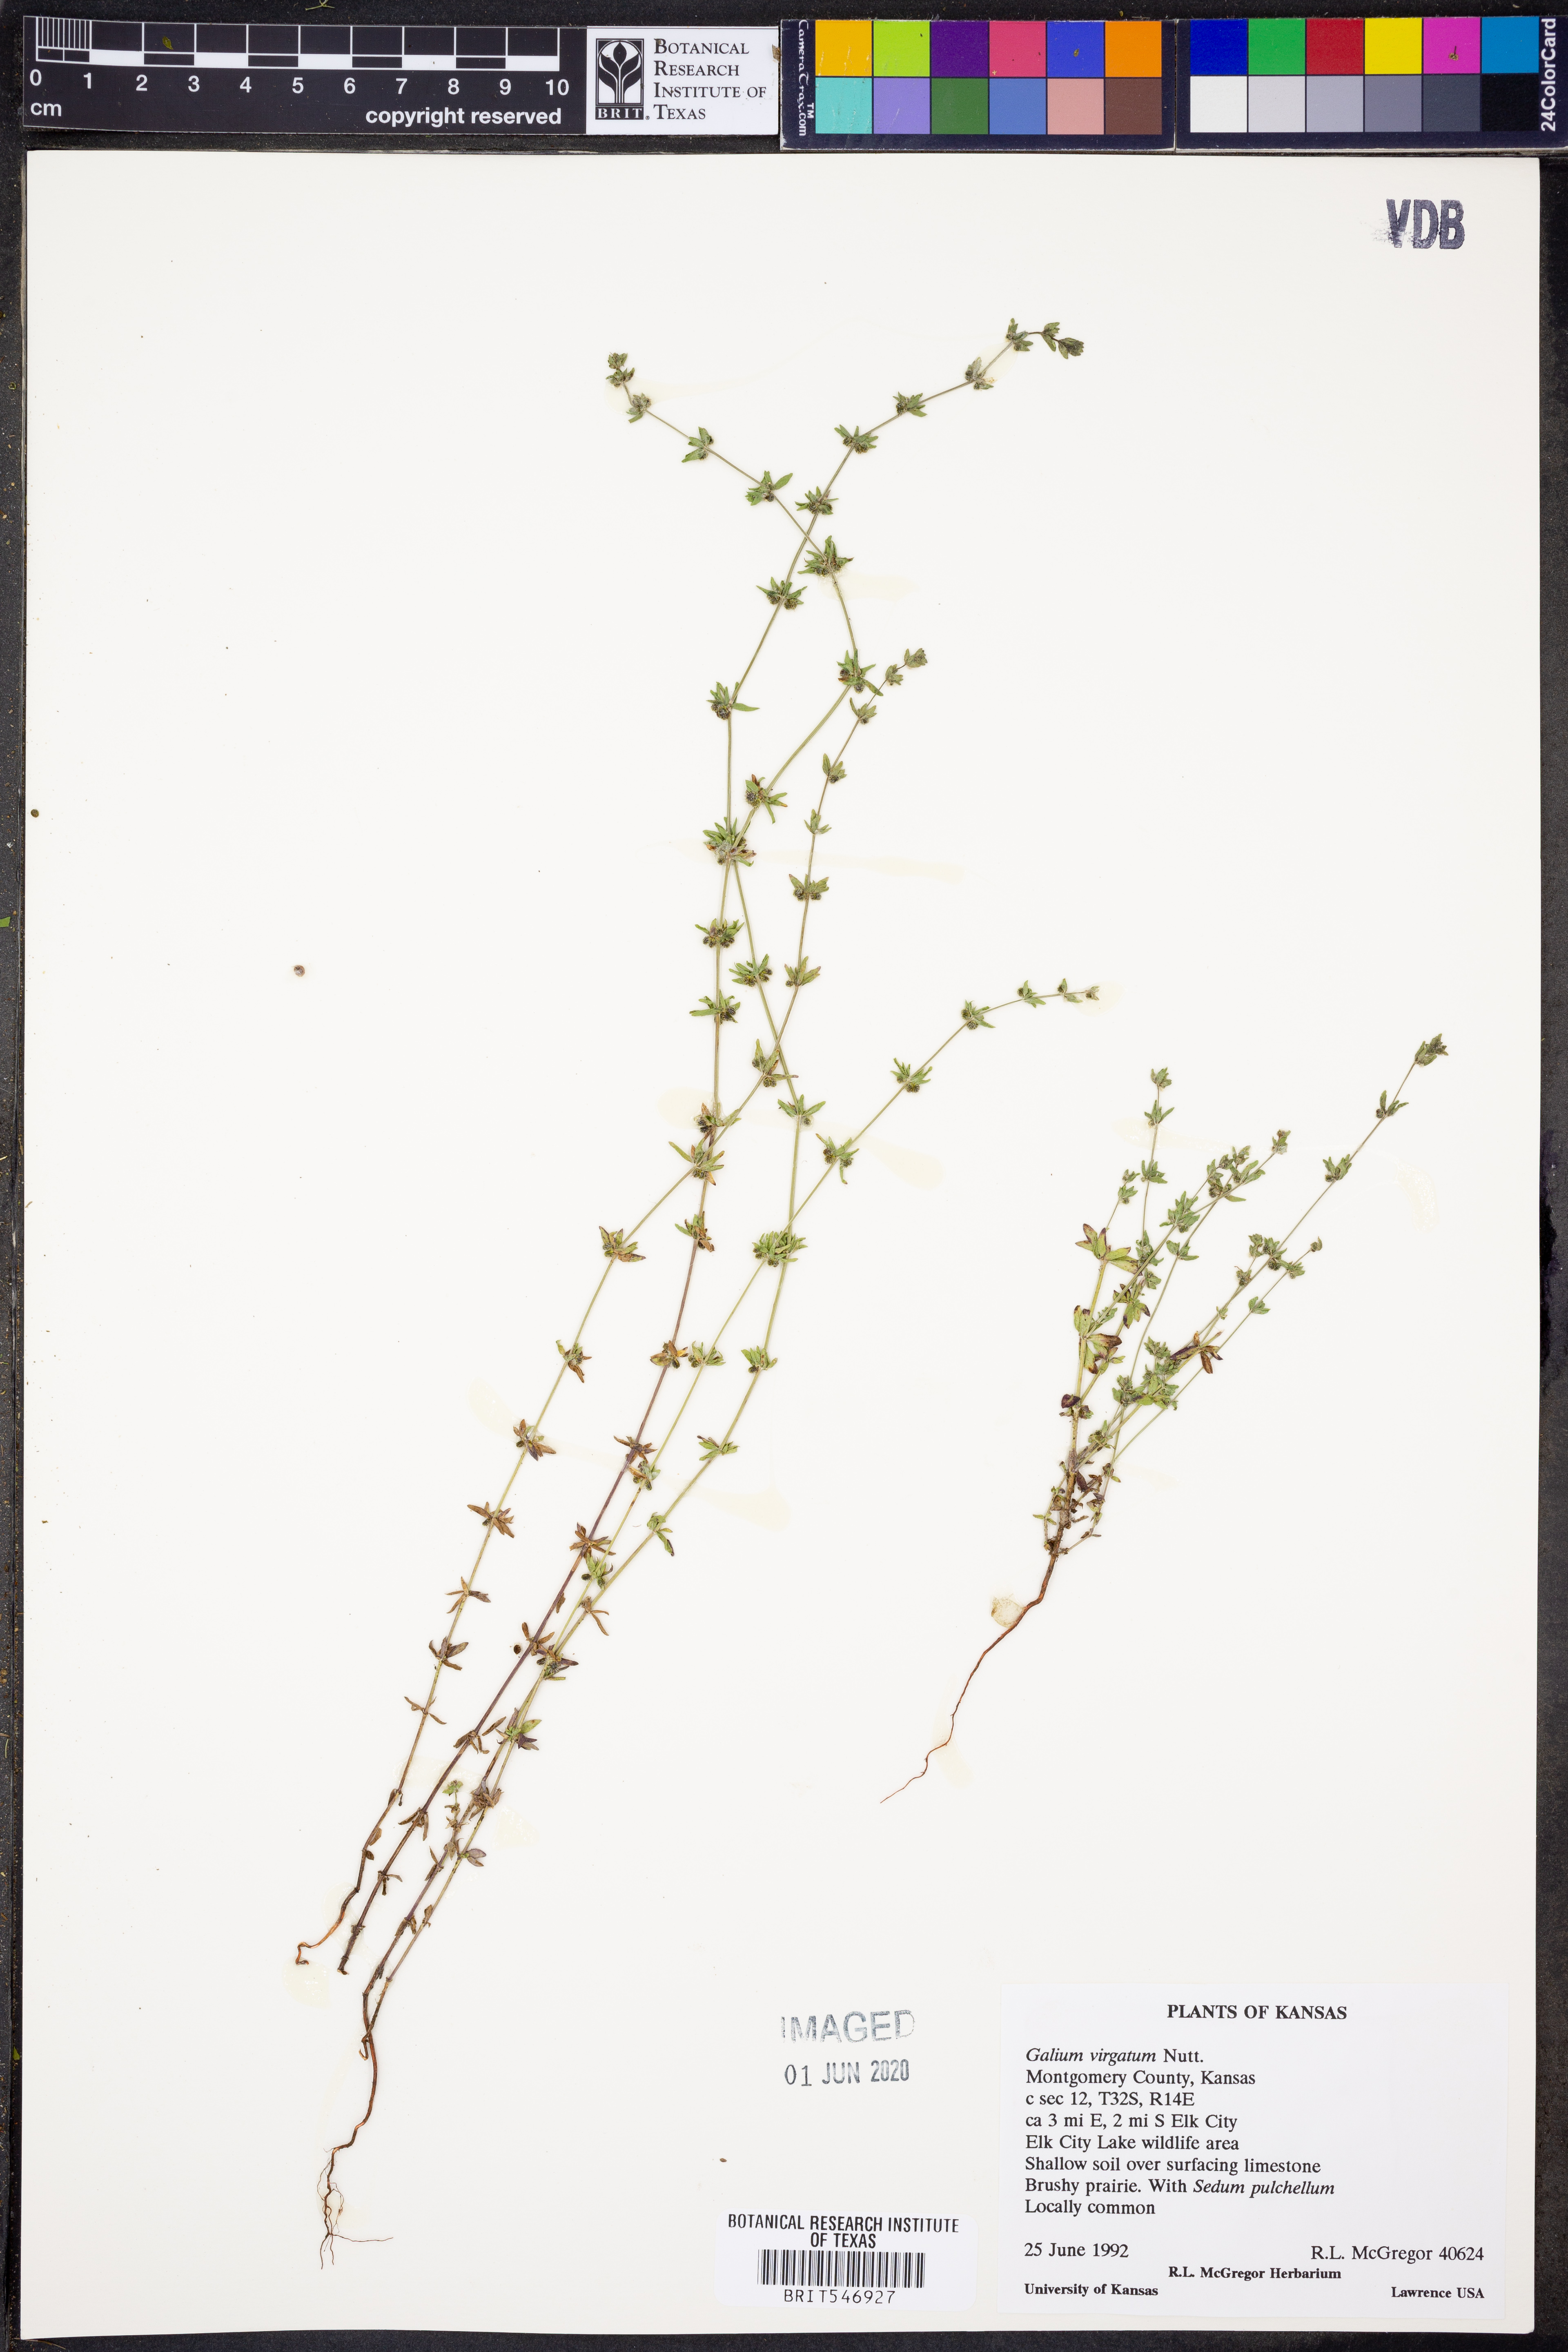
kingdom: Plantae
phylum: Tracheophyta
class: Magnoliopsida
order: Gentianales
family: Rubiaceae
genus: Galium
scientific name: Galium virgatum
